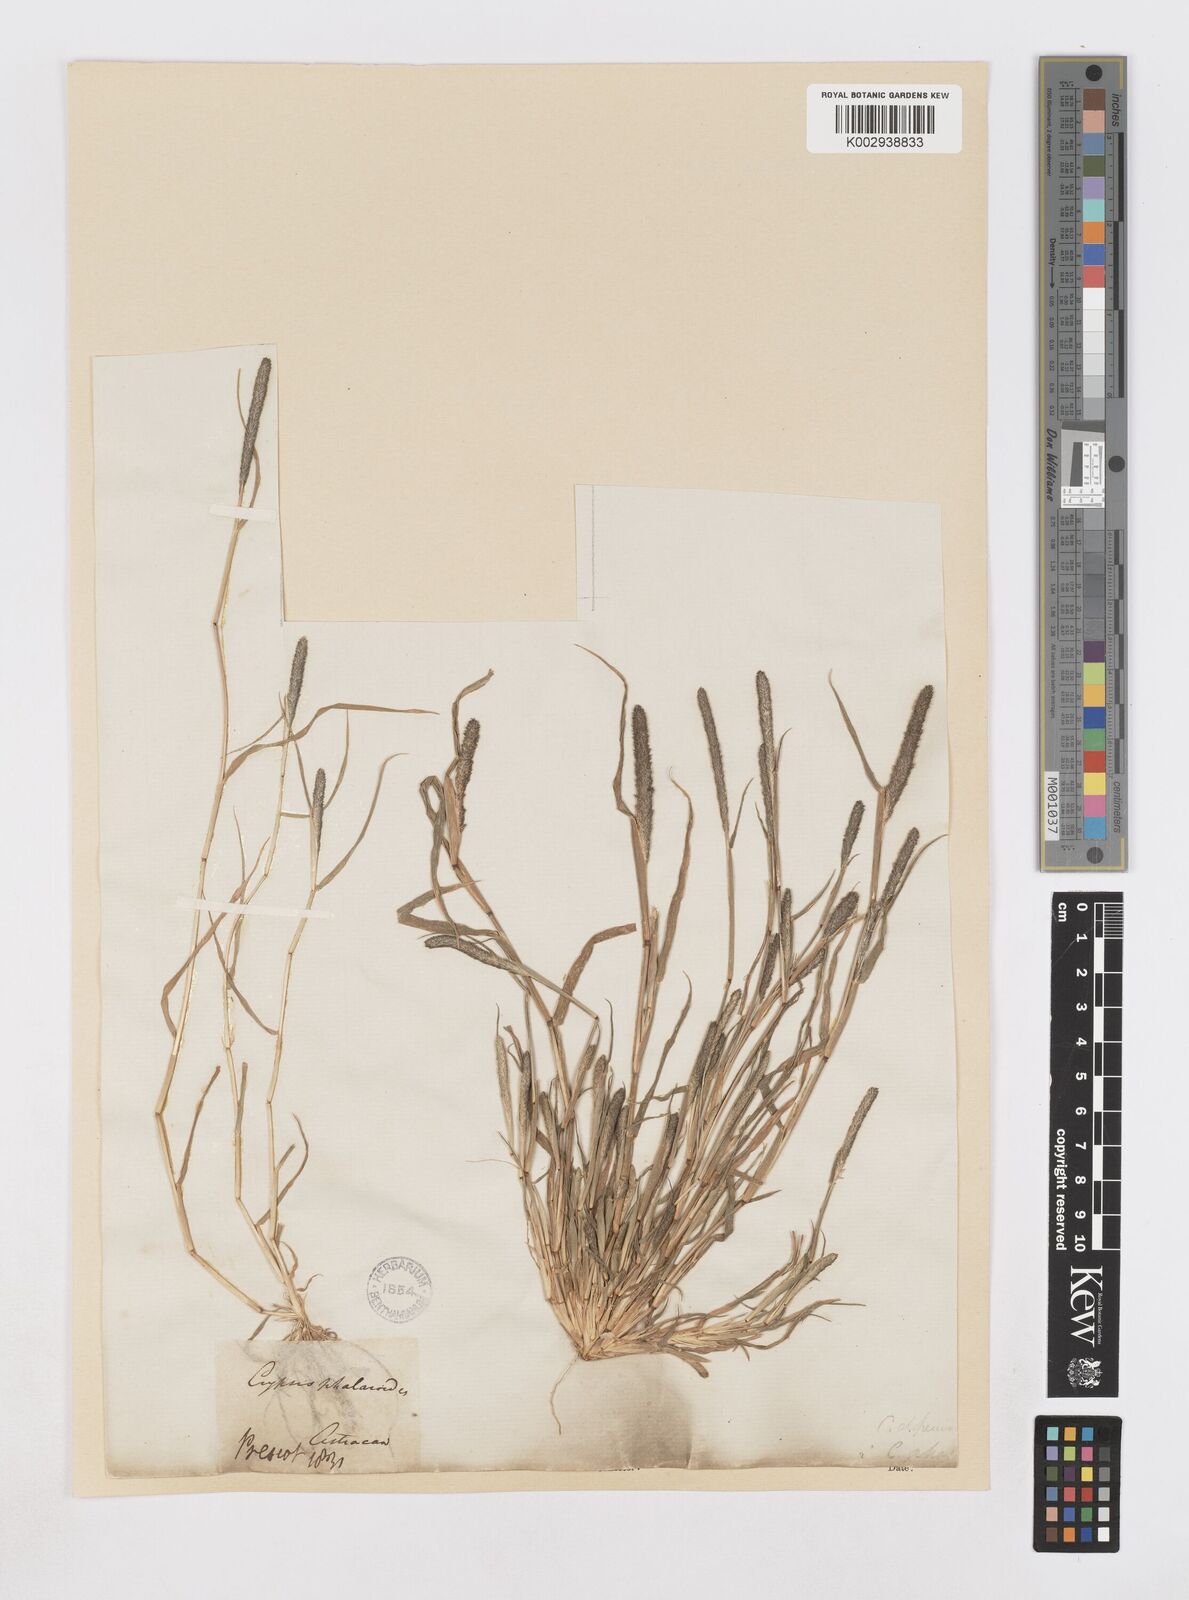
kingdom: Plantae
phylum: Tracheophyta
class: Liliopsida
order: Poales
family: Poaceae
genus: Sporobolus
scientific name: Sporobolus alopecuroides
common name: Foxtail pricklegrass
